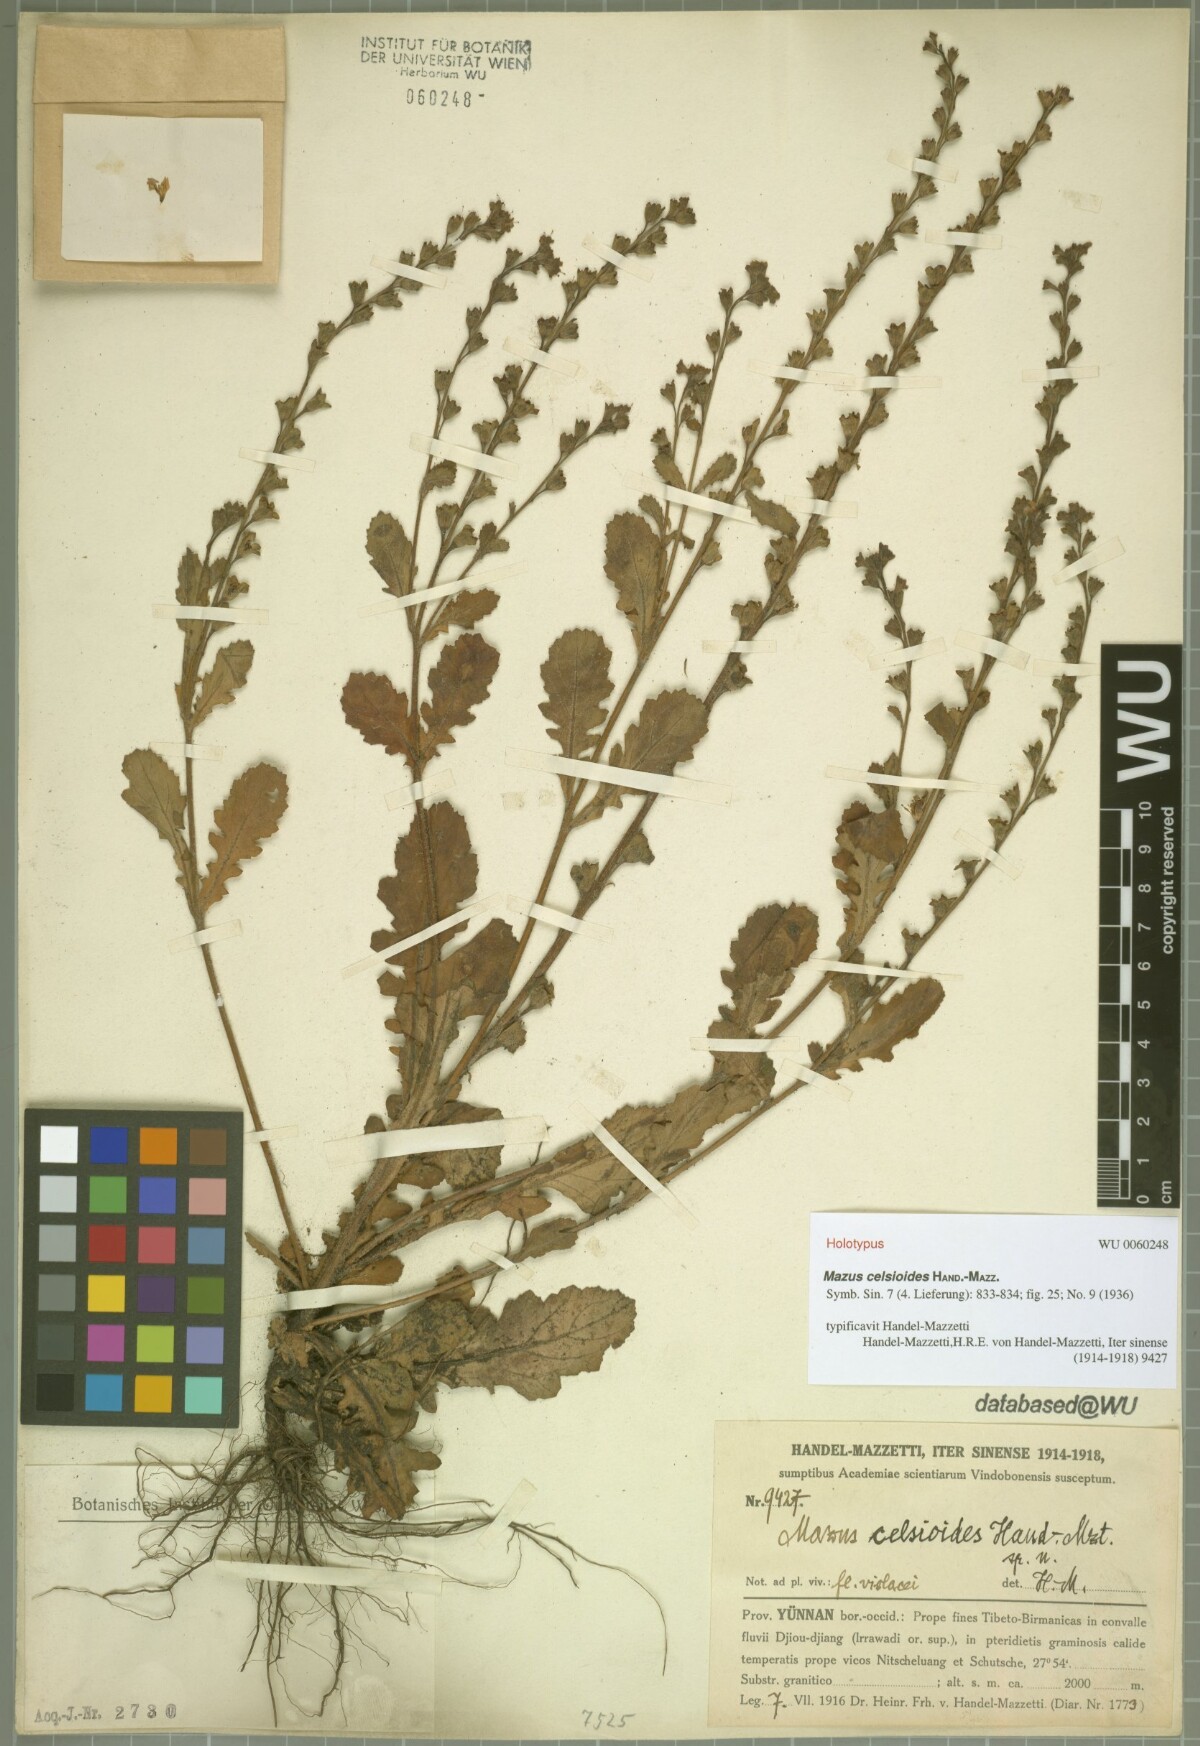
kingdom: Plantae
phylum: Tracheophyta
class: Magnoliopsida
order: Lamiales
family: Mazaceae
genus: Mazus
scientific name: Mazus celsioides
